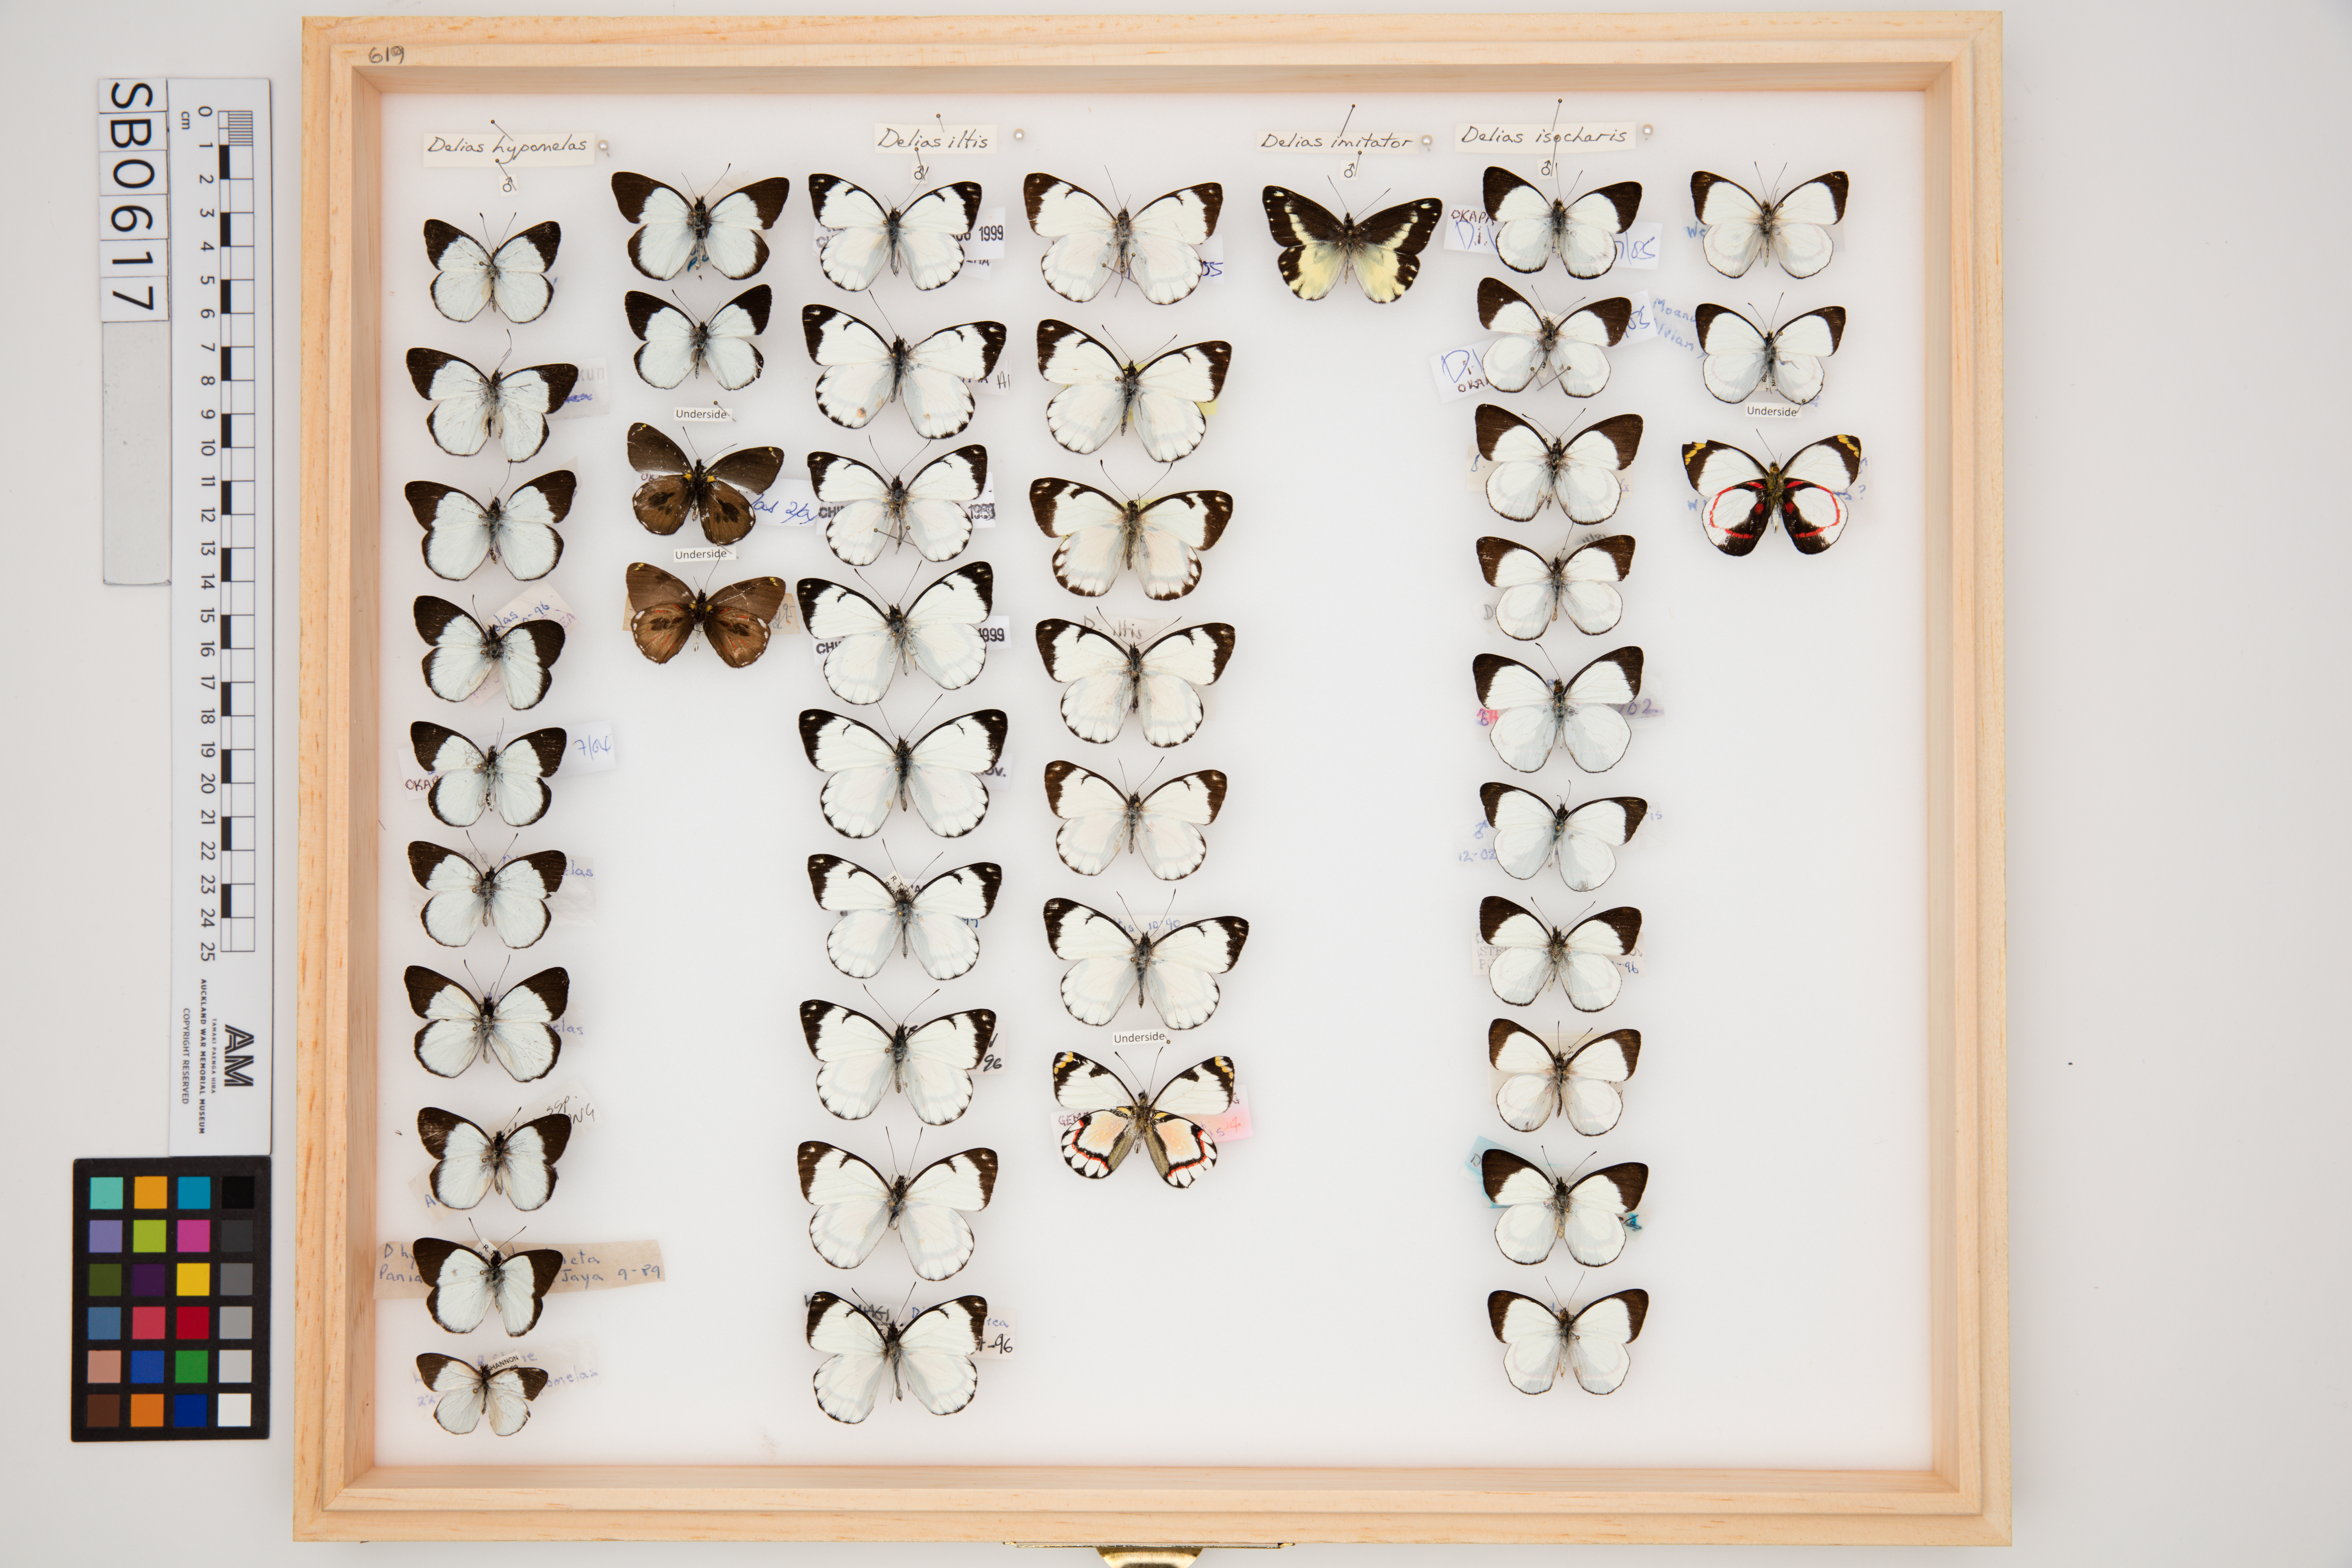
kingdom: Animalia
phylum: Arthropoda
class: Insecta
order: Lepidoptera
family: Pieridae
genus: Delias
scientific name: Delias iltis
